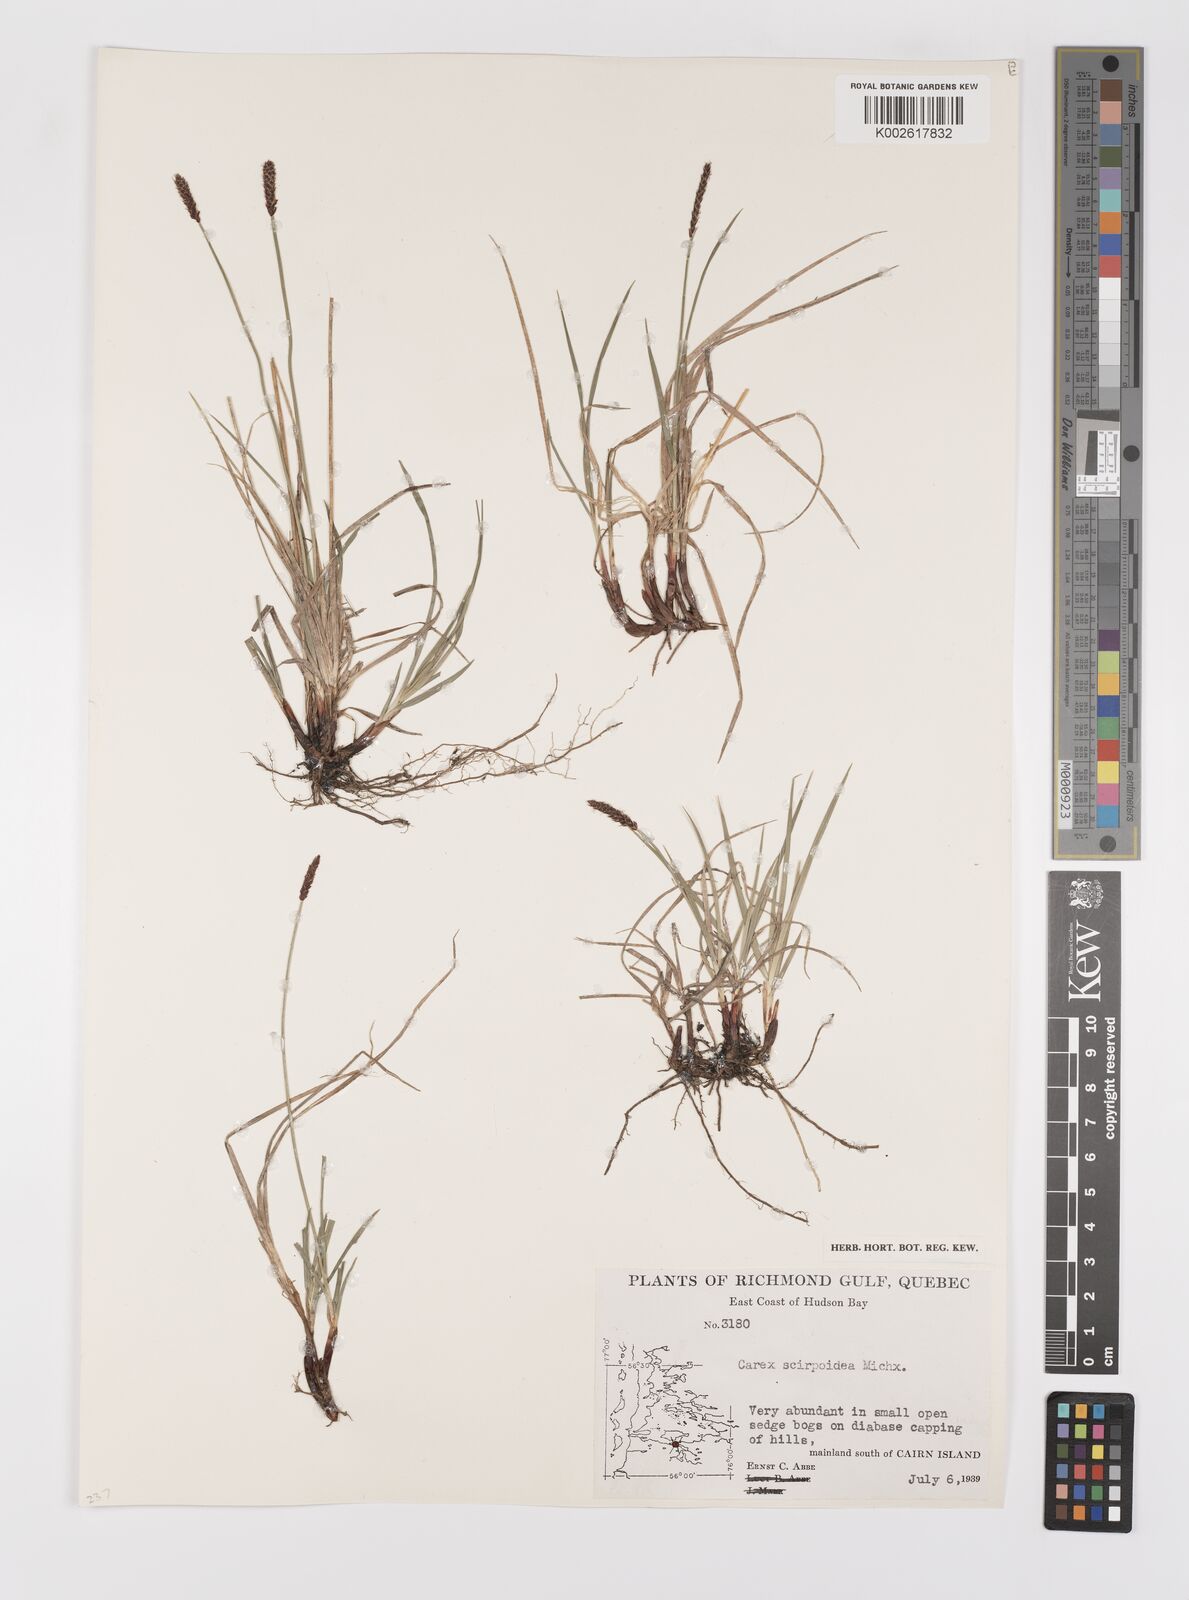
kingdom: Plantae
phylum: Tracheophyta
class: Liliopsida
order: Poales
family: Cyperaceae
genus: Carex
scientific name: Carex scirpoidea
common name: Canada single-spike sedge
